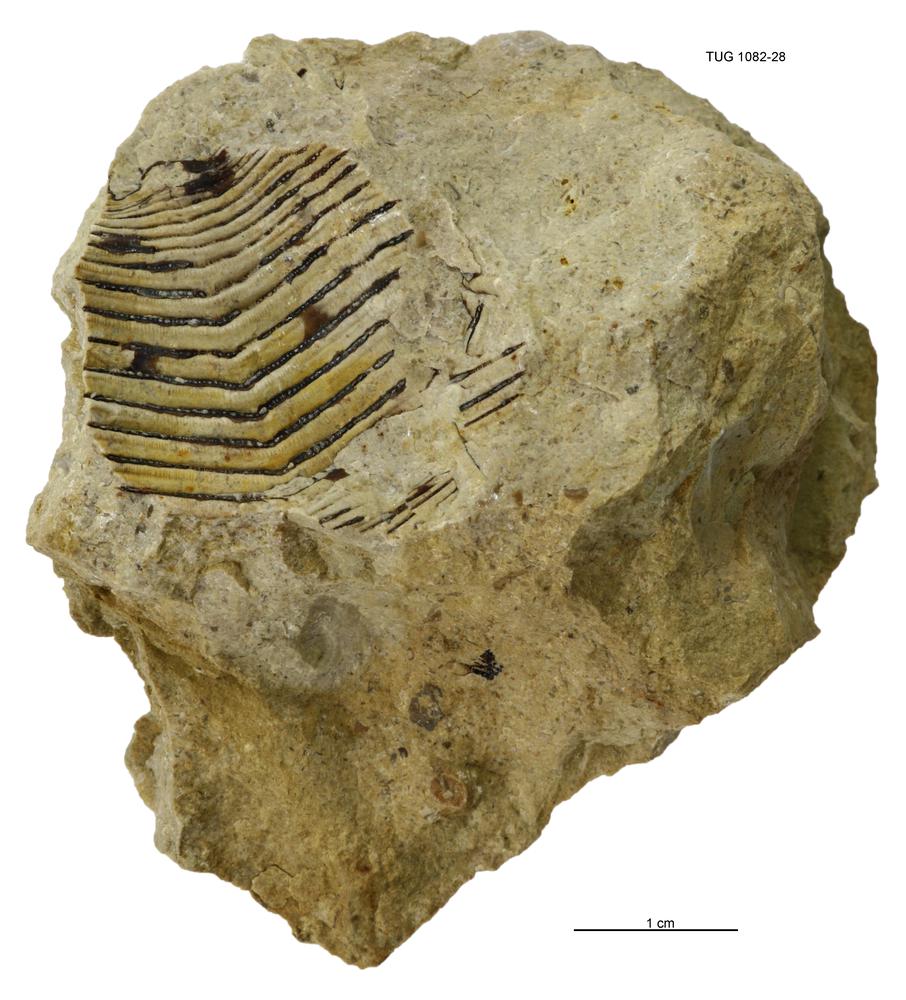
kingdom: Animalia
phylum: Cnidaria
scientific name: Cnidaria
